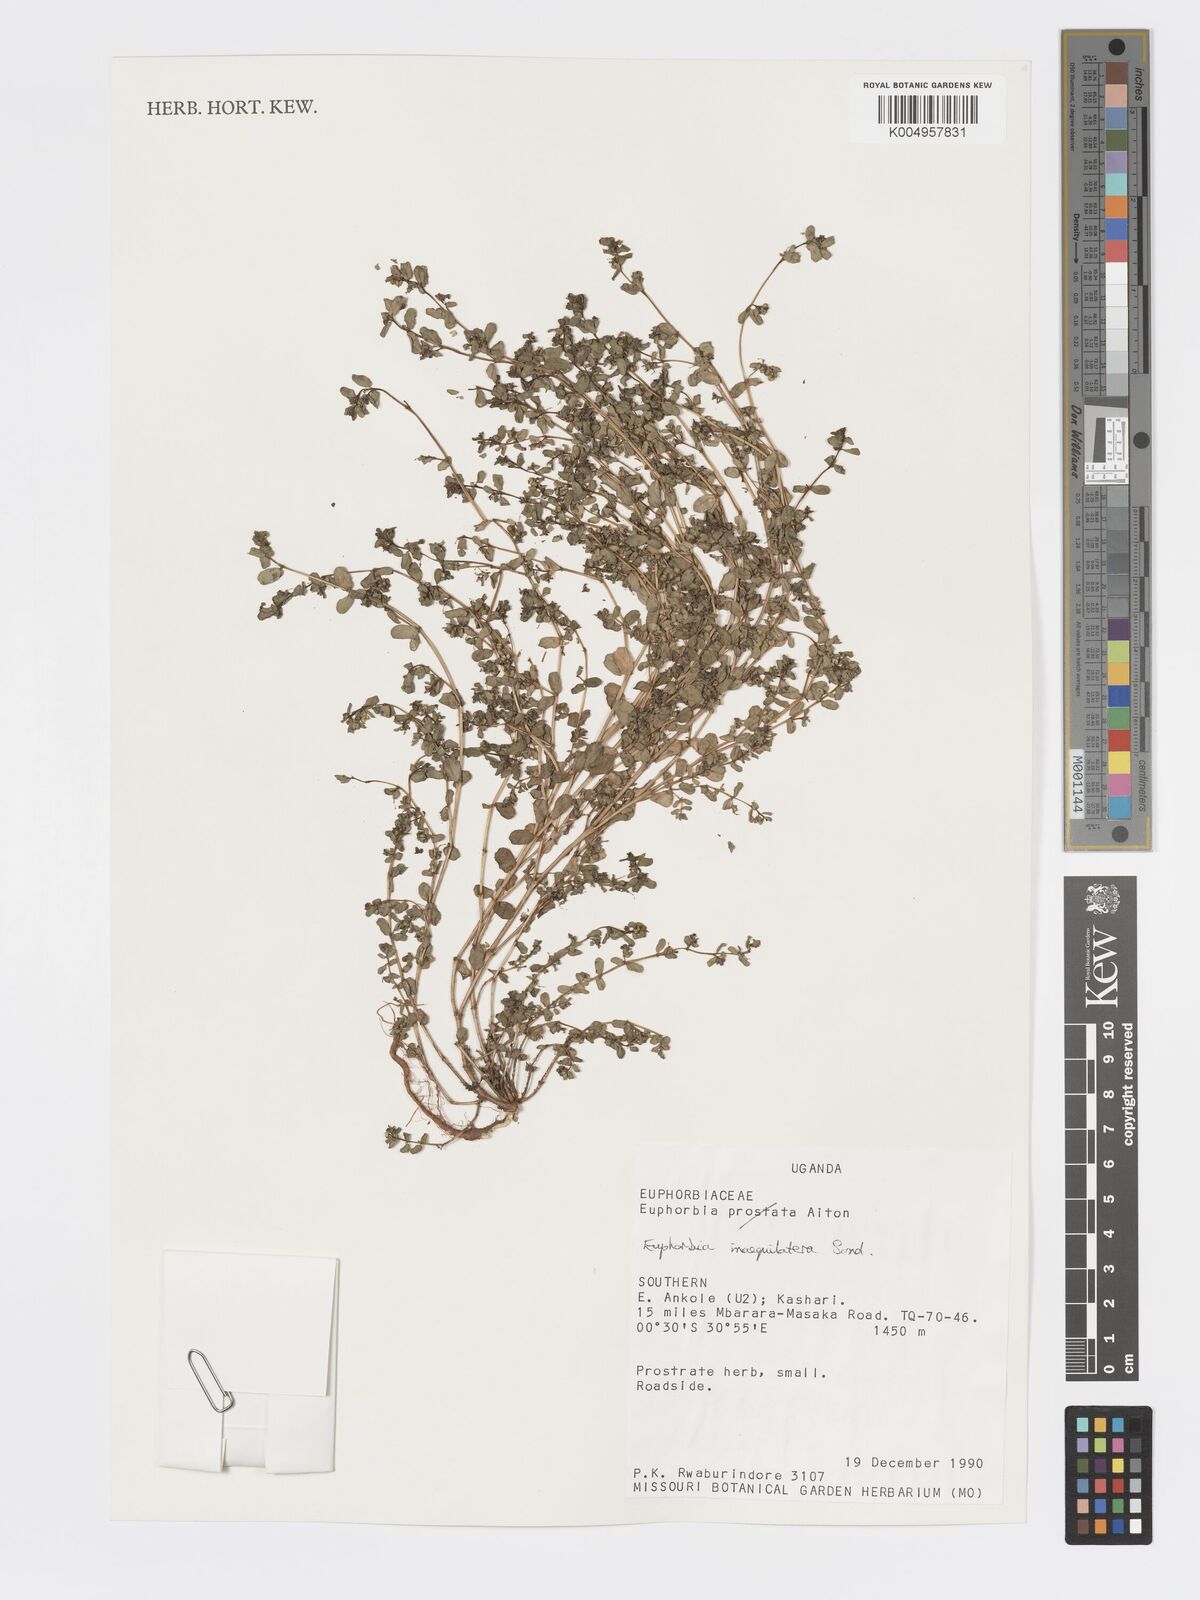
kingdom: Plantae
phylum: Tracheophyta
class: Magnoliopsida
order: Malpighiales
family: Euphorbiaceae
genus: Euphorbia
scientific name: Euphorbia inaequilatera
